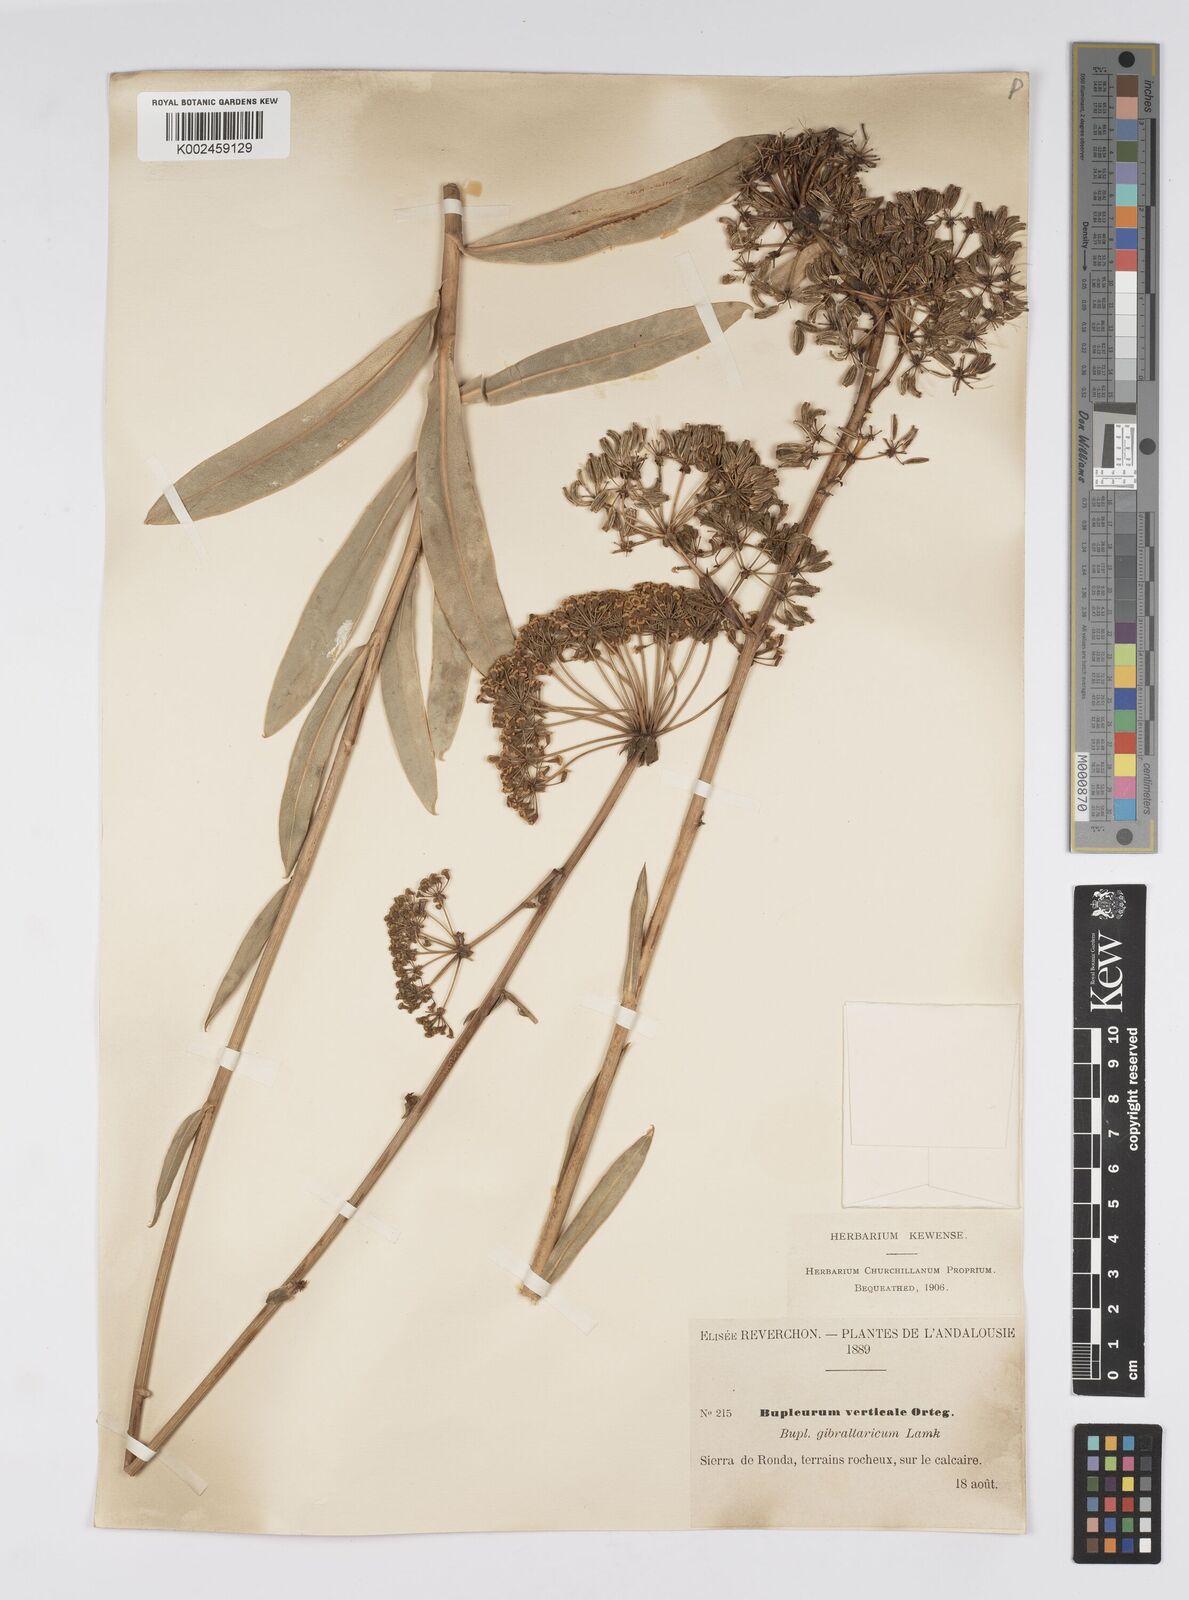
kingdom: Plantae
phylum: Tracheophyta
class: Magnoliopsida
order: Apiales
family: Apiaceae
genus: Bupleurum
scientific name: Bupleurum gibraltaricum
